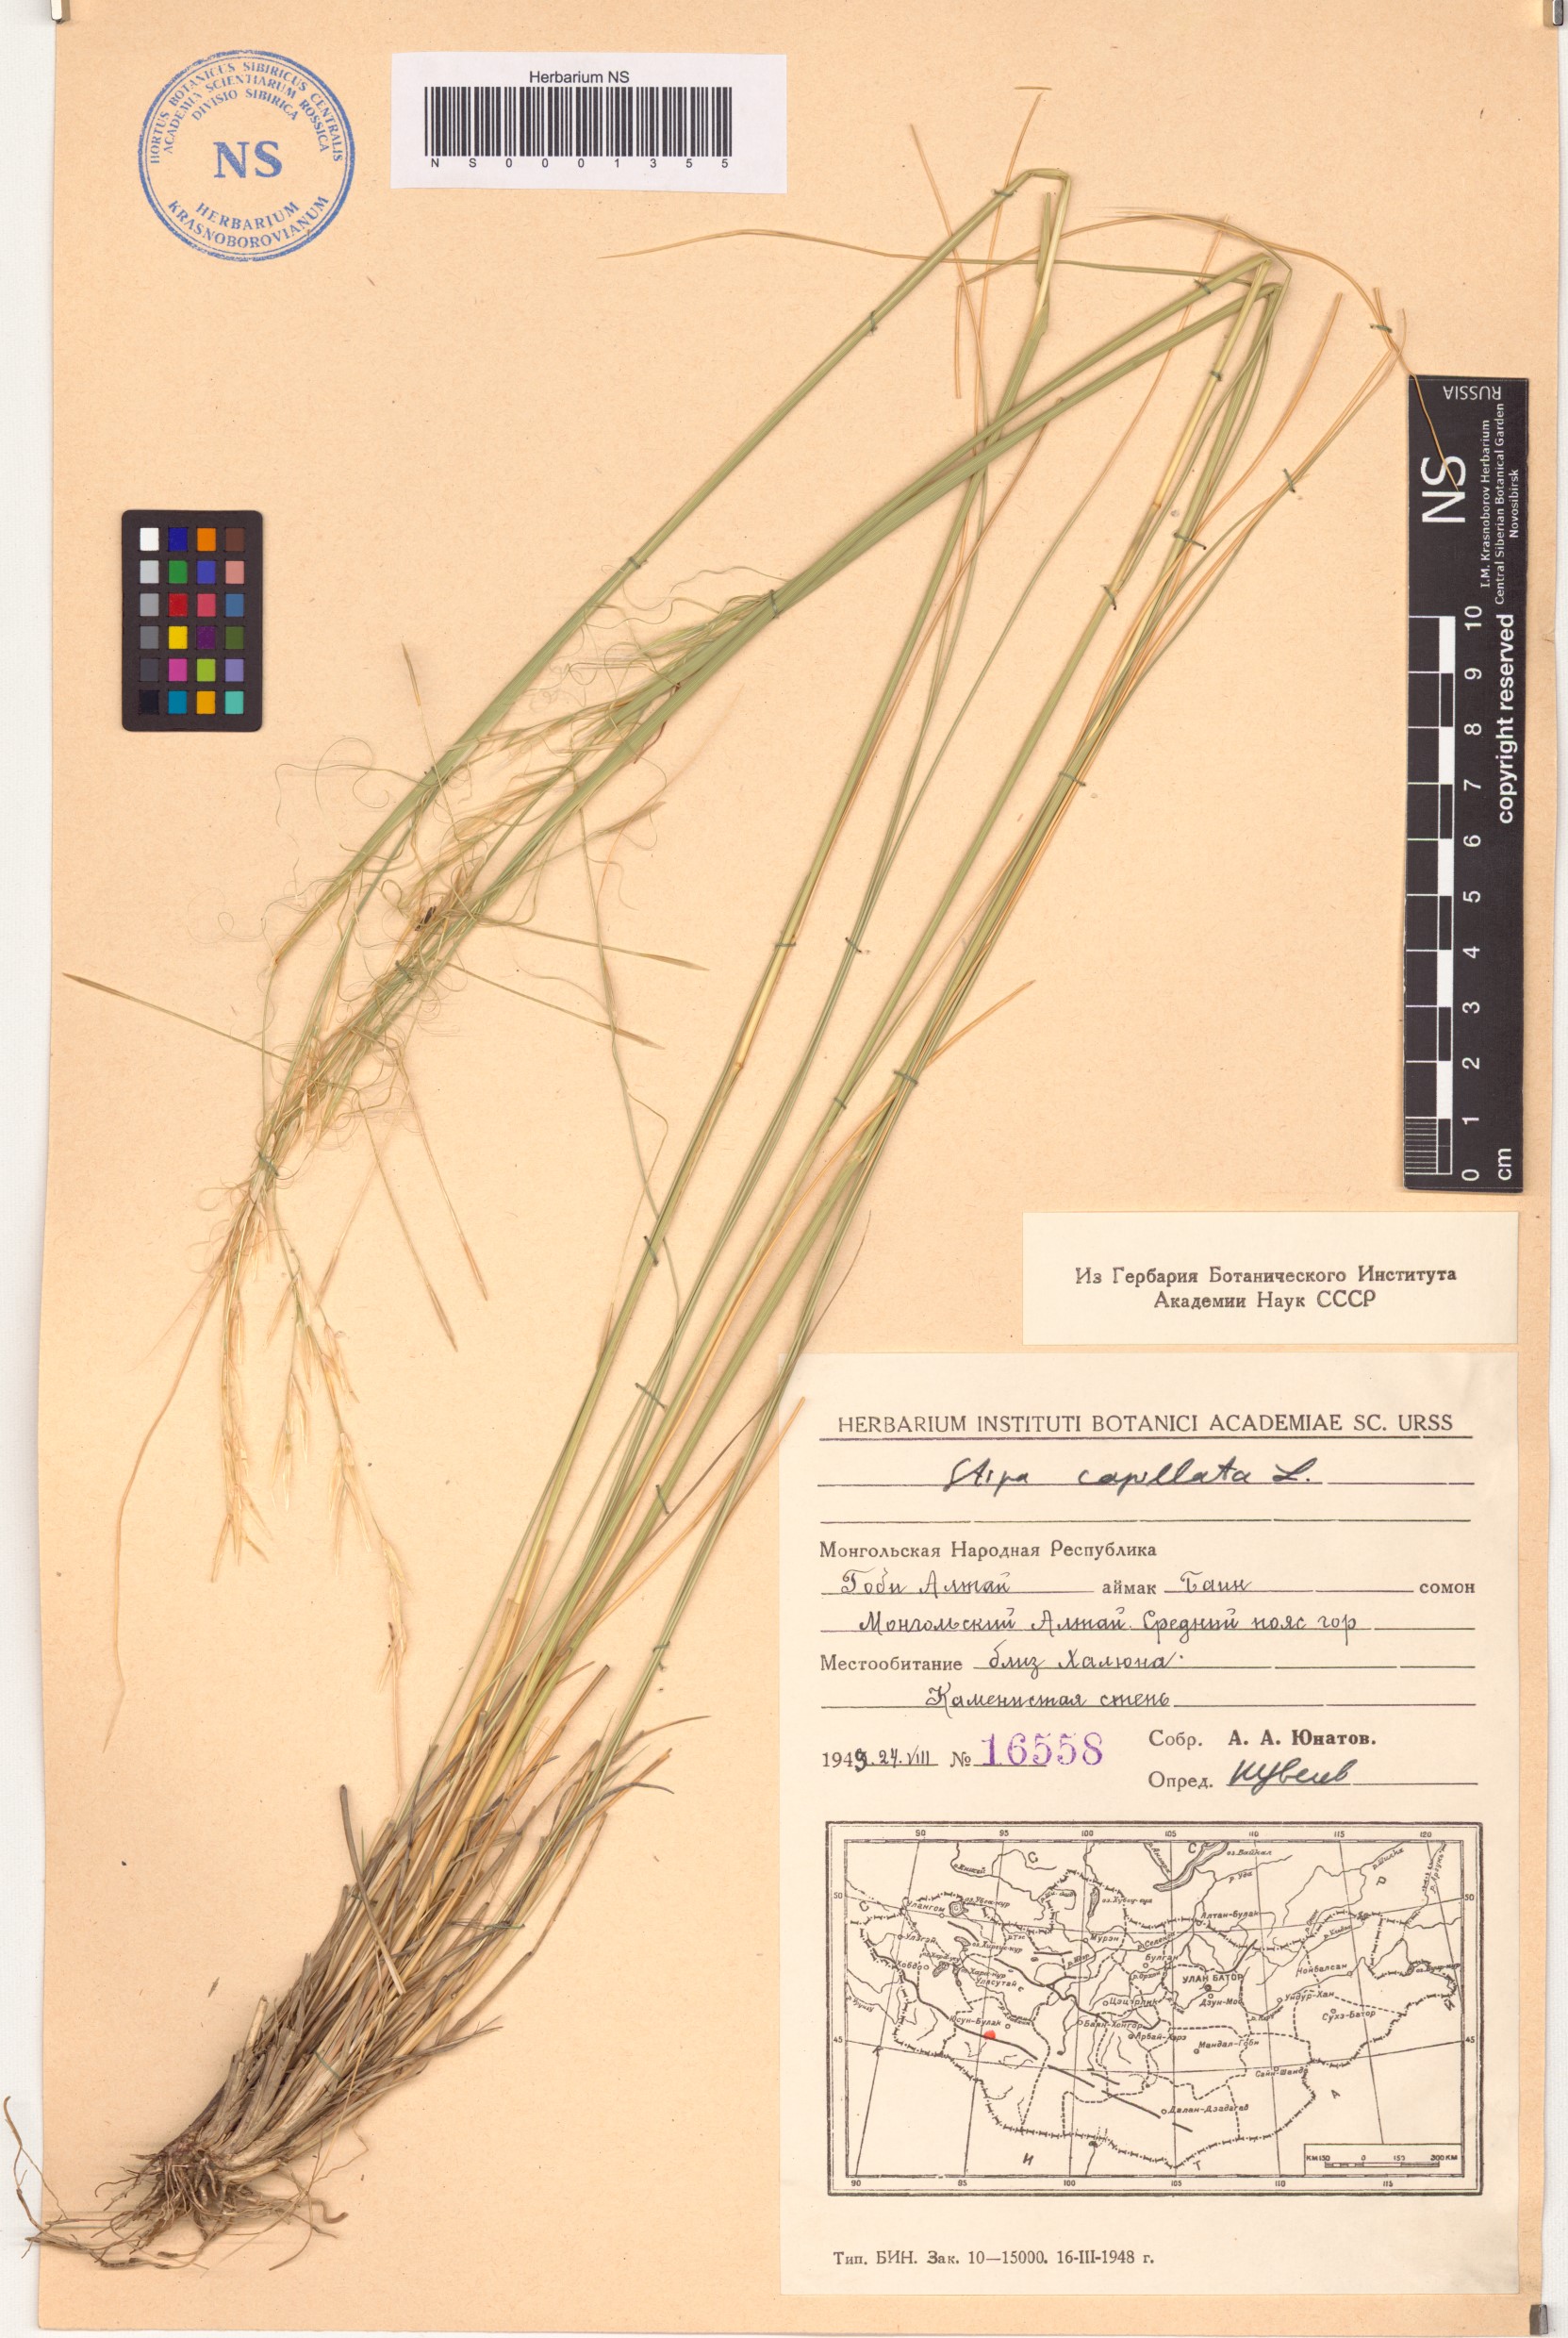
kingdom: Plantae
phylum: Tracheophyta
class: Liliopsida
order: Poales
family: Poaceae
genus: Stipa
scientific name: Stipa capillata
